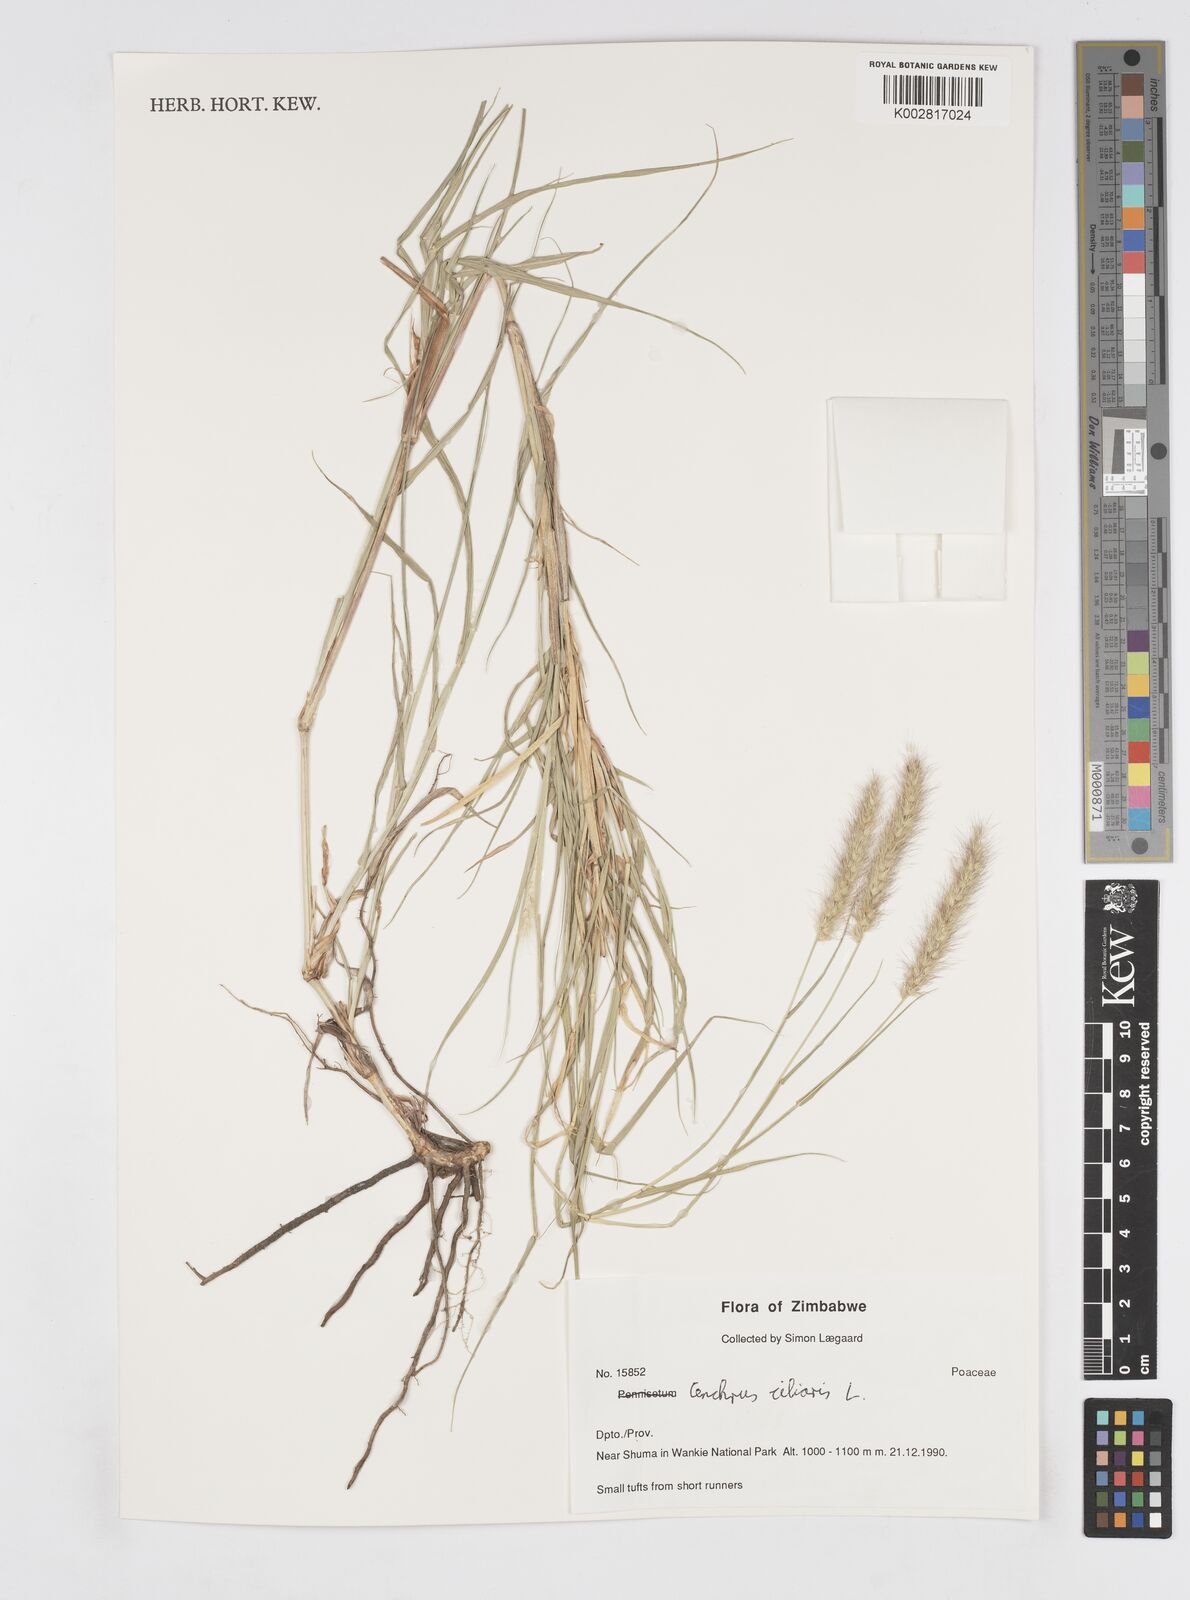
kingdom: Plantae
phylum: Tracheophyta
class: Liliopsida
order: Poales
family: Poaceae
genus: Cenchrus
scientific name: Cenchrus ciliaris
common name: Buffelgrass
